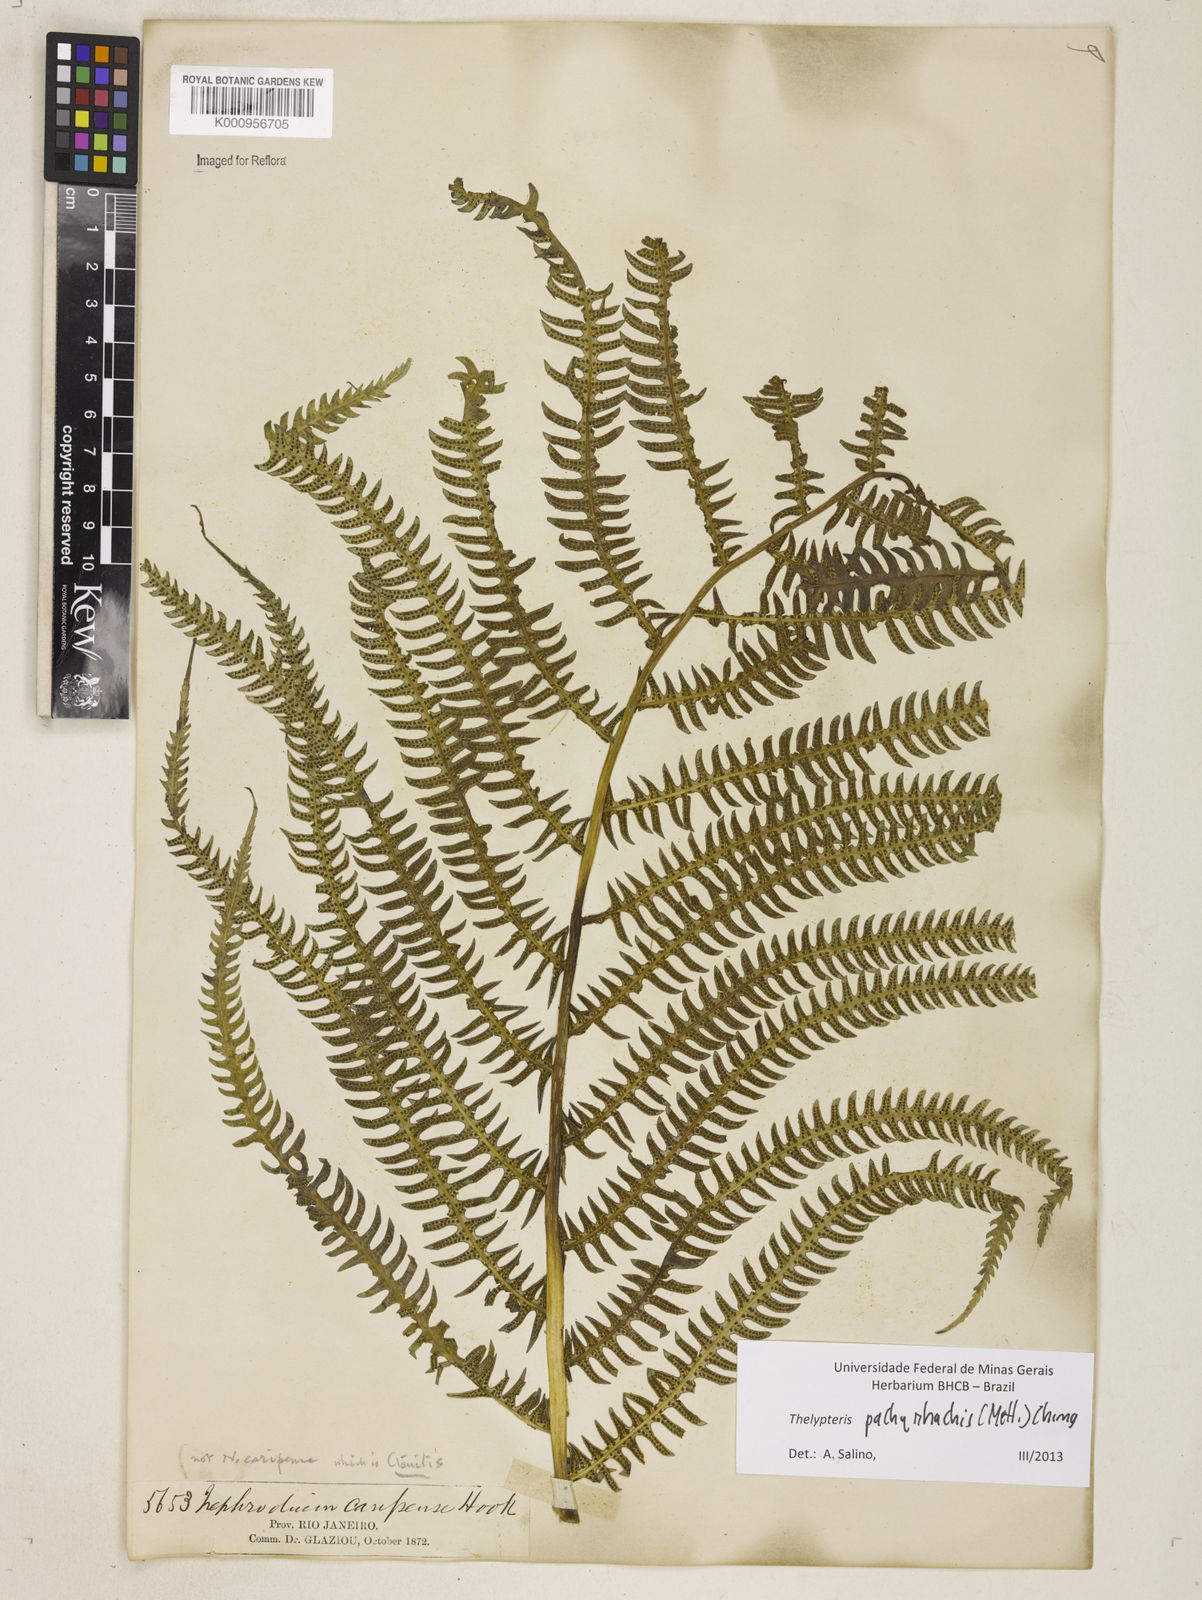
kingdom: Plantae
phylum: Tracheophyta
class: Polypodiopsida
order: Polypodiales
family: Thelypteridaceae
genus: Amauropelta
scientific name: Amauropelta pachyrhachis
